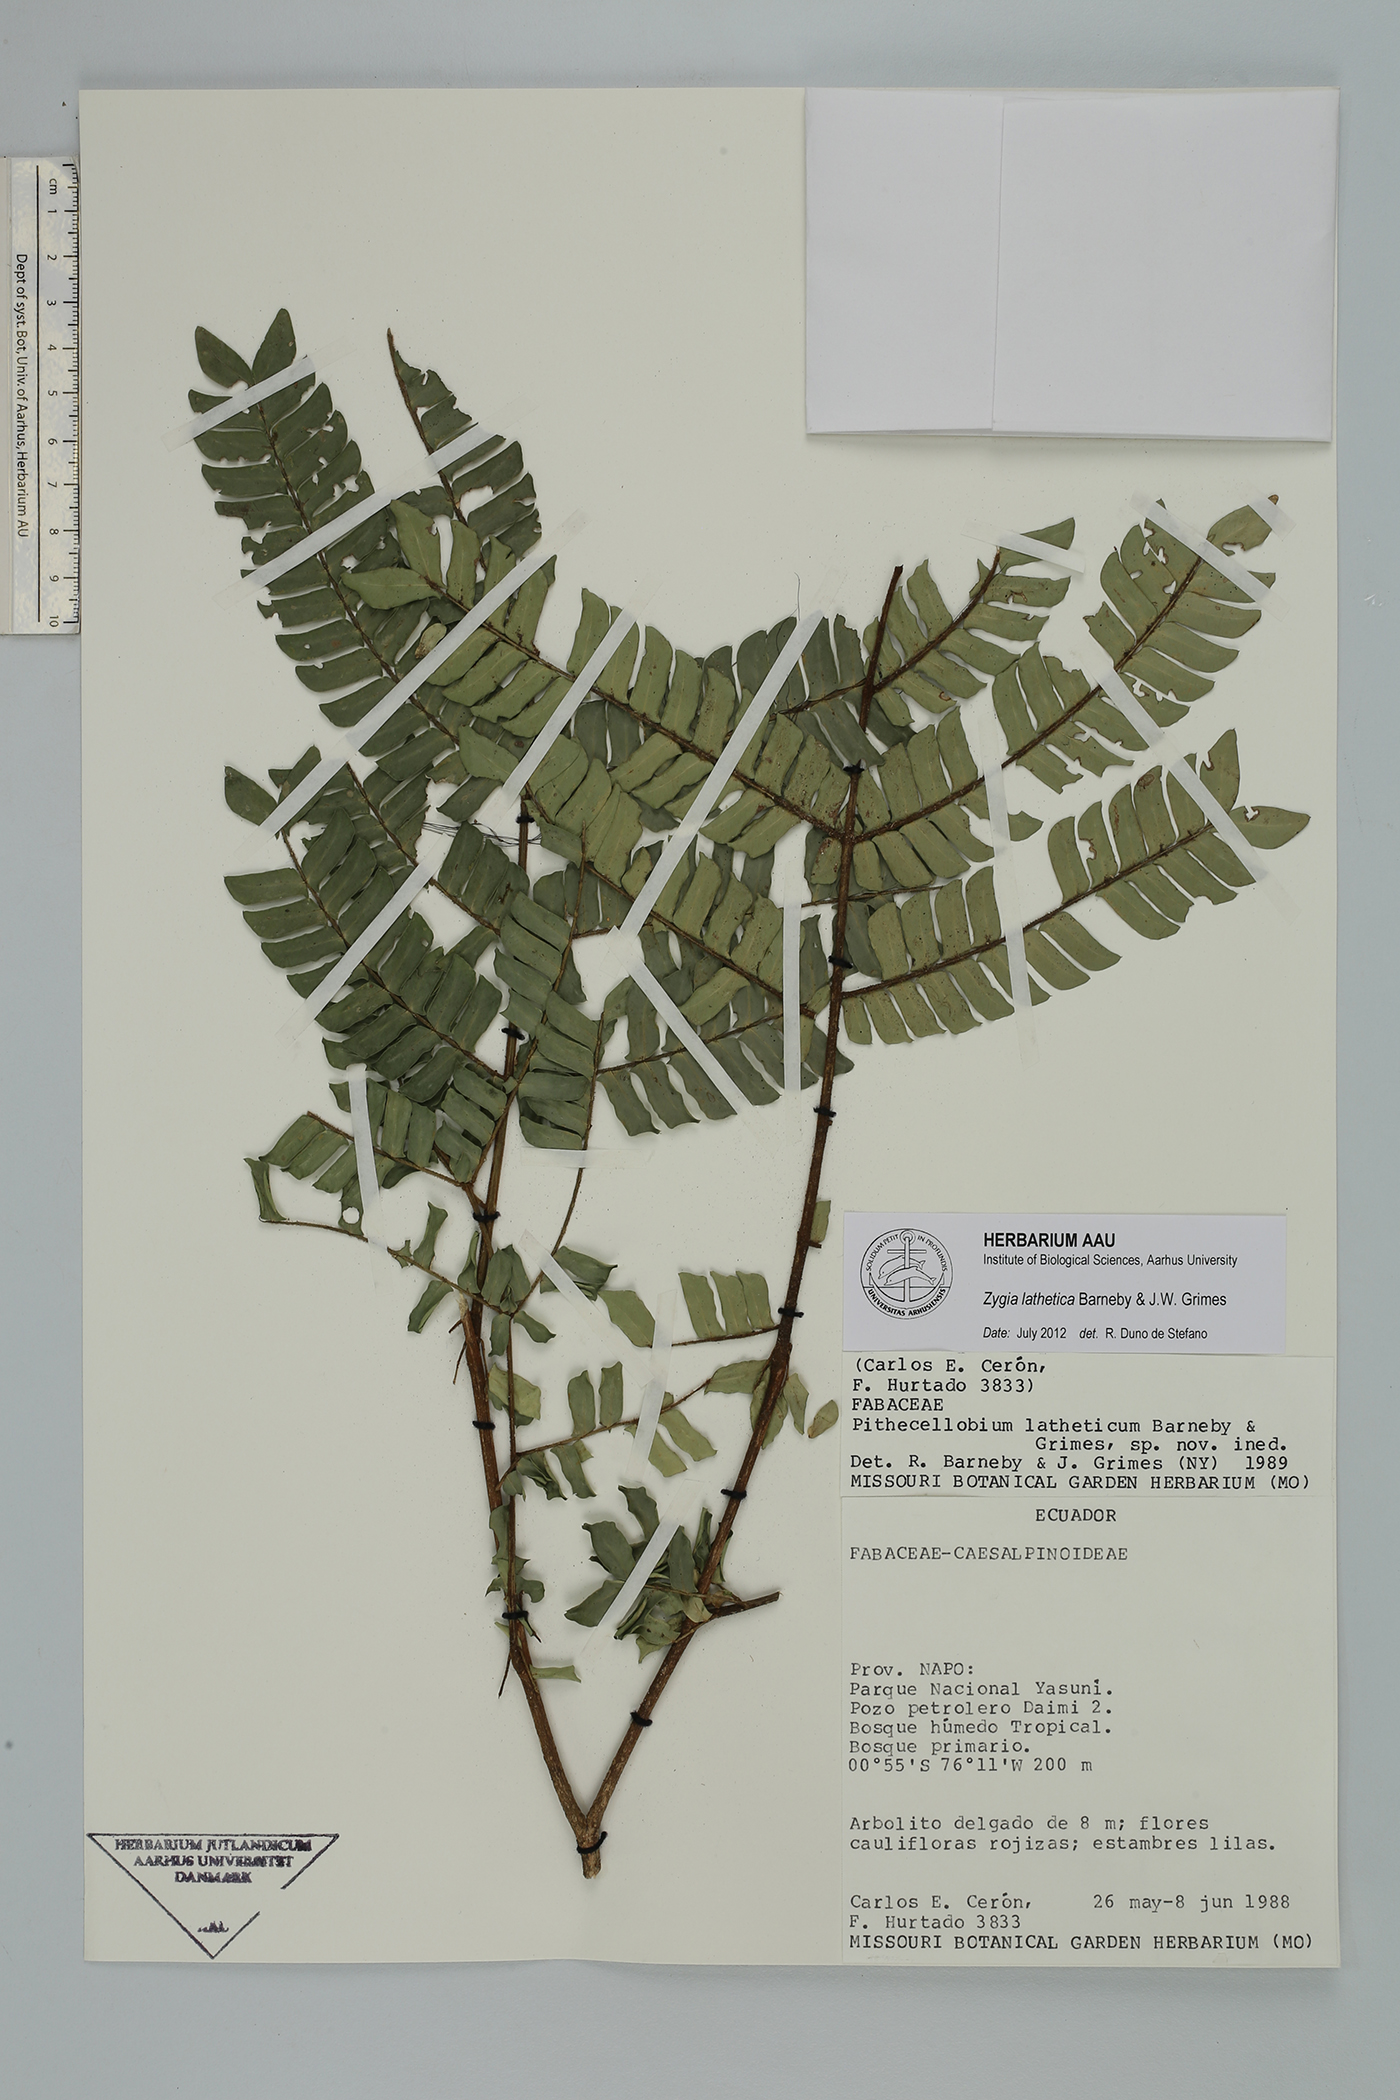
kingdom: Plantae
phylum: Tracheophyta
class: Magnoliopsida
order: Fabales
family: Fabaceae
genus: Zygia
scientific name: Zygia lathetica
